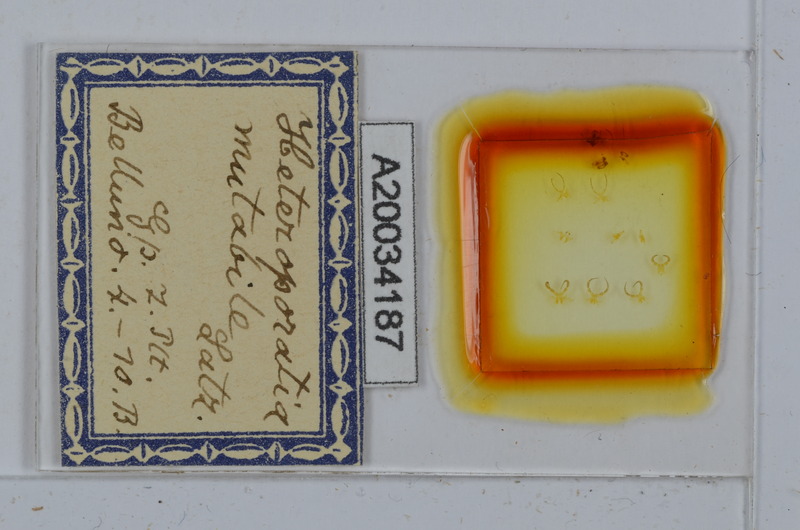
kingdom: Animalia
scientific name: Animalia
